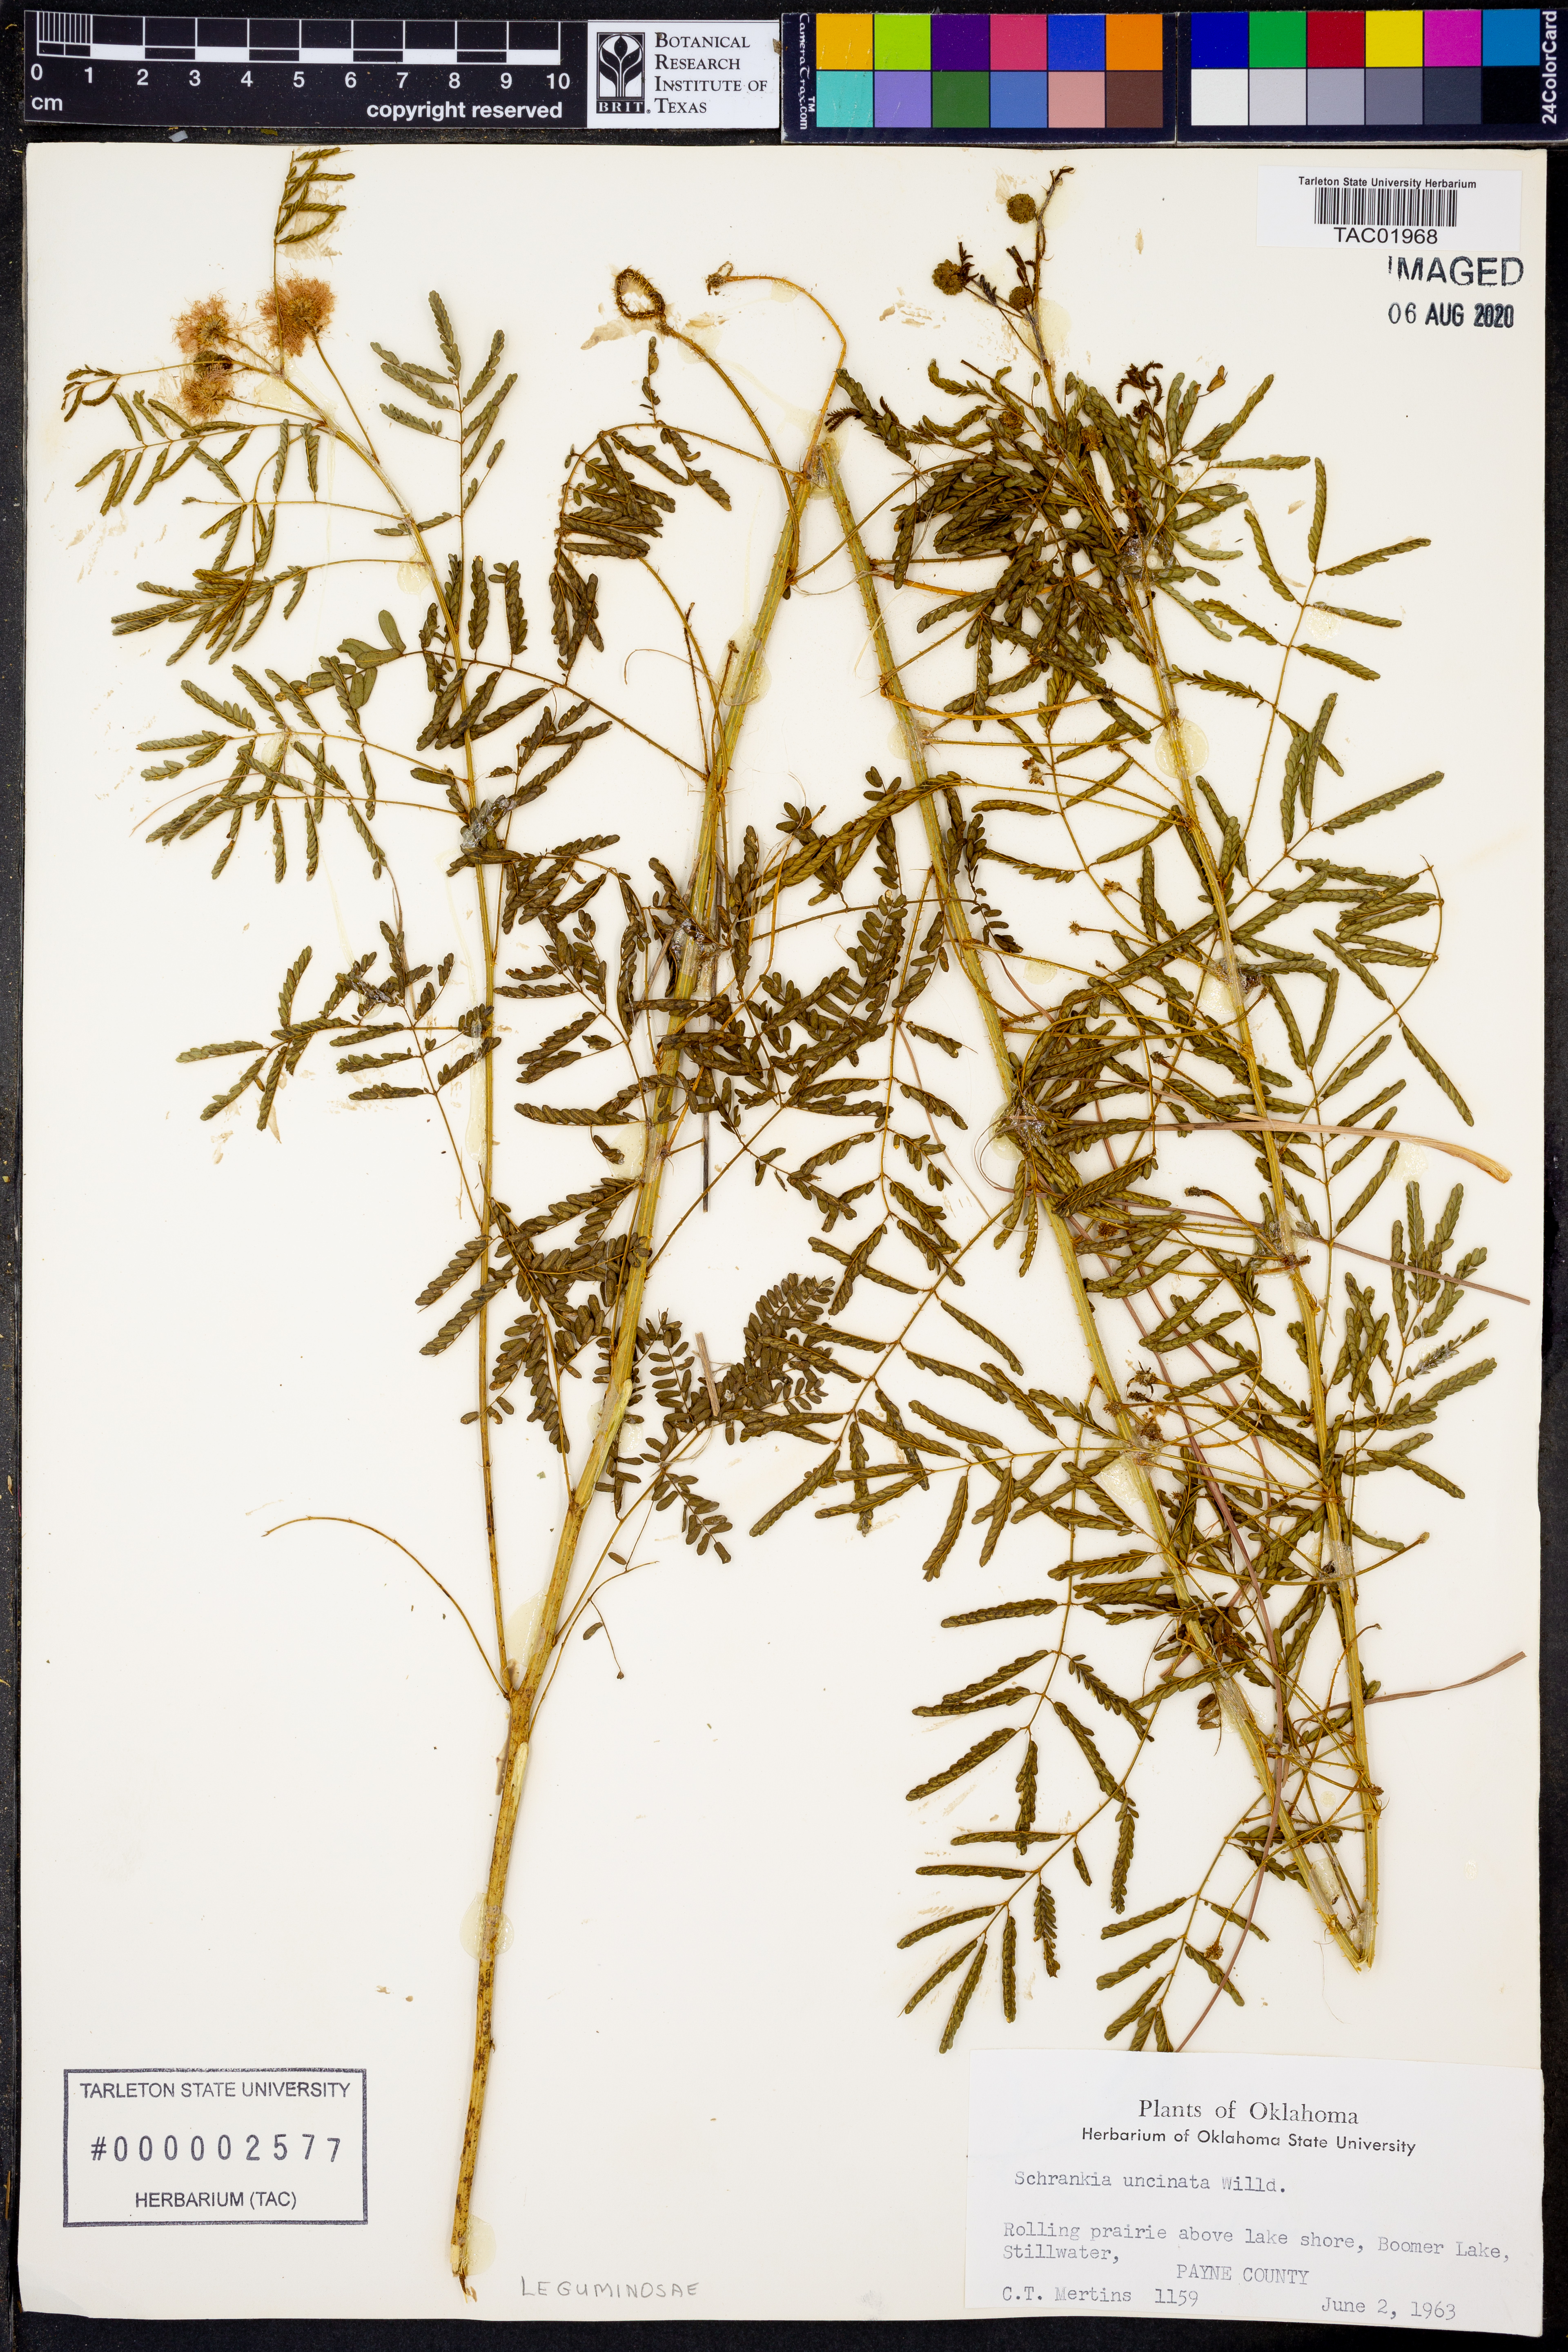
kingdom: Plantae
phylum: Tracheophyta
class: Magnoliopsida
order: Fabales
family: Fabaceae
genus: Mimosa
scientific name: Mimosa quadrivalvis
